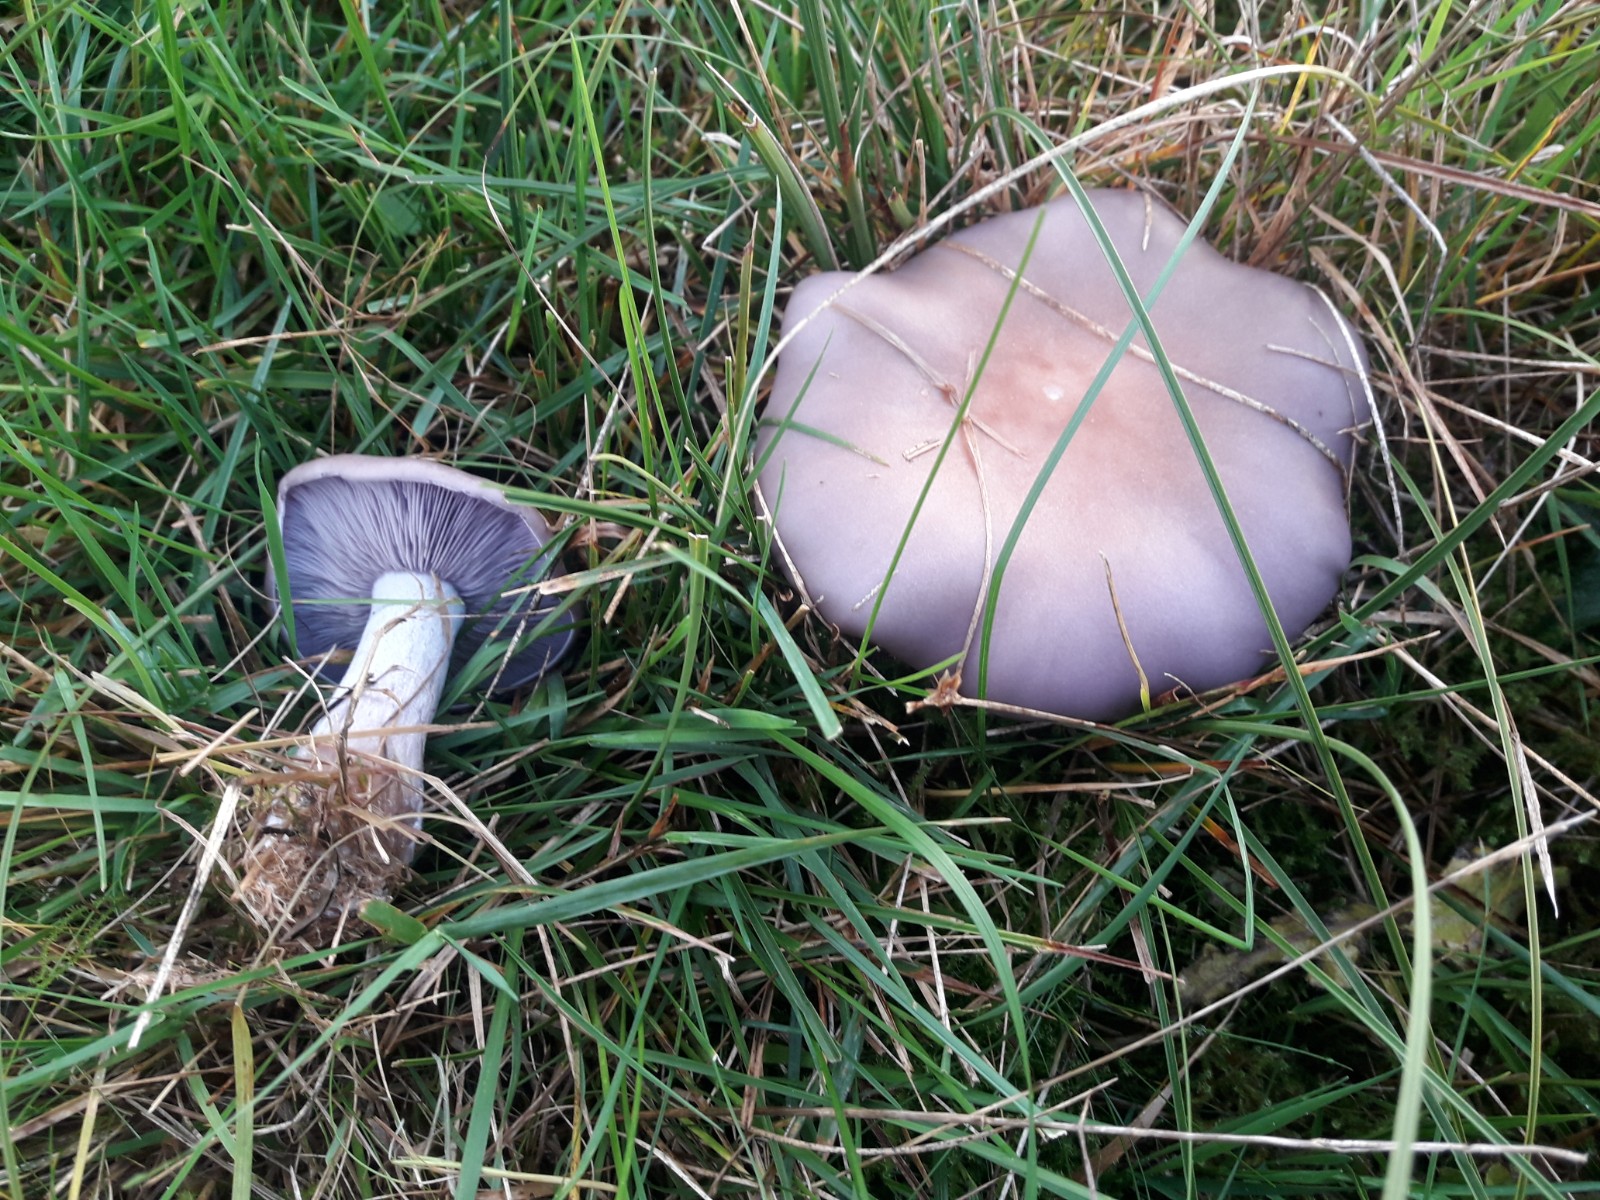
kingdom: Fungi
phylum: Basidiomycota
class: Agaricomycetes
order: Agaricales
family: Tricholomataceae
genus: Lepista
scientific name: Lepista nuda
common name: violet hekseringshat
